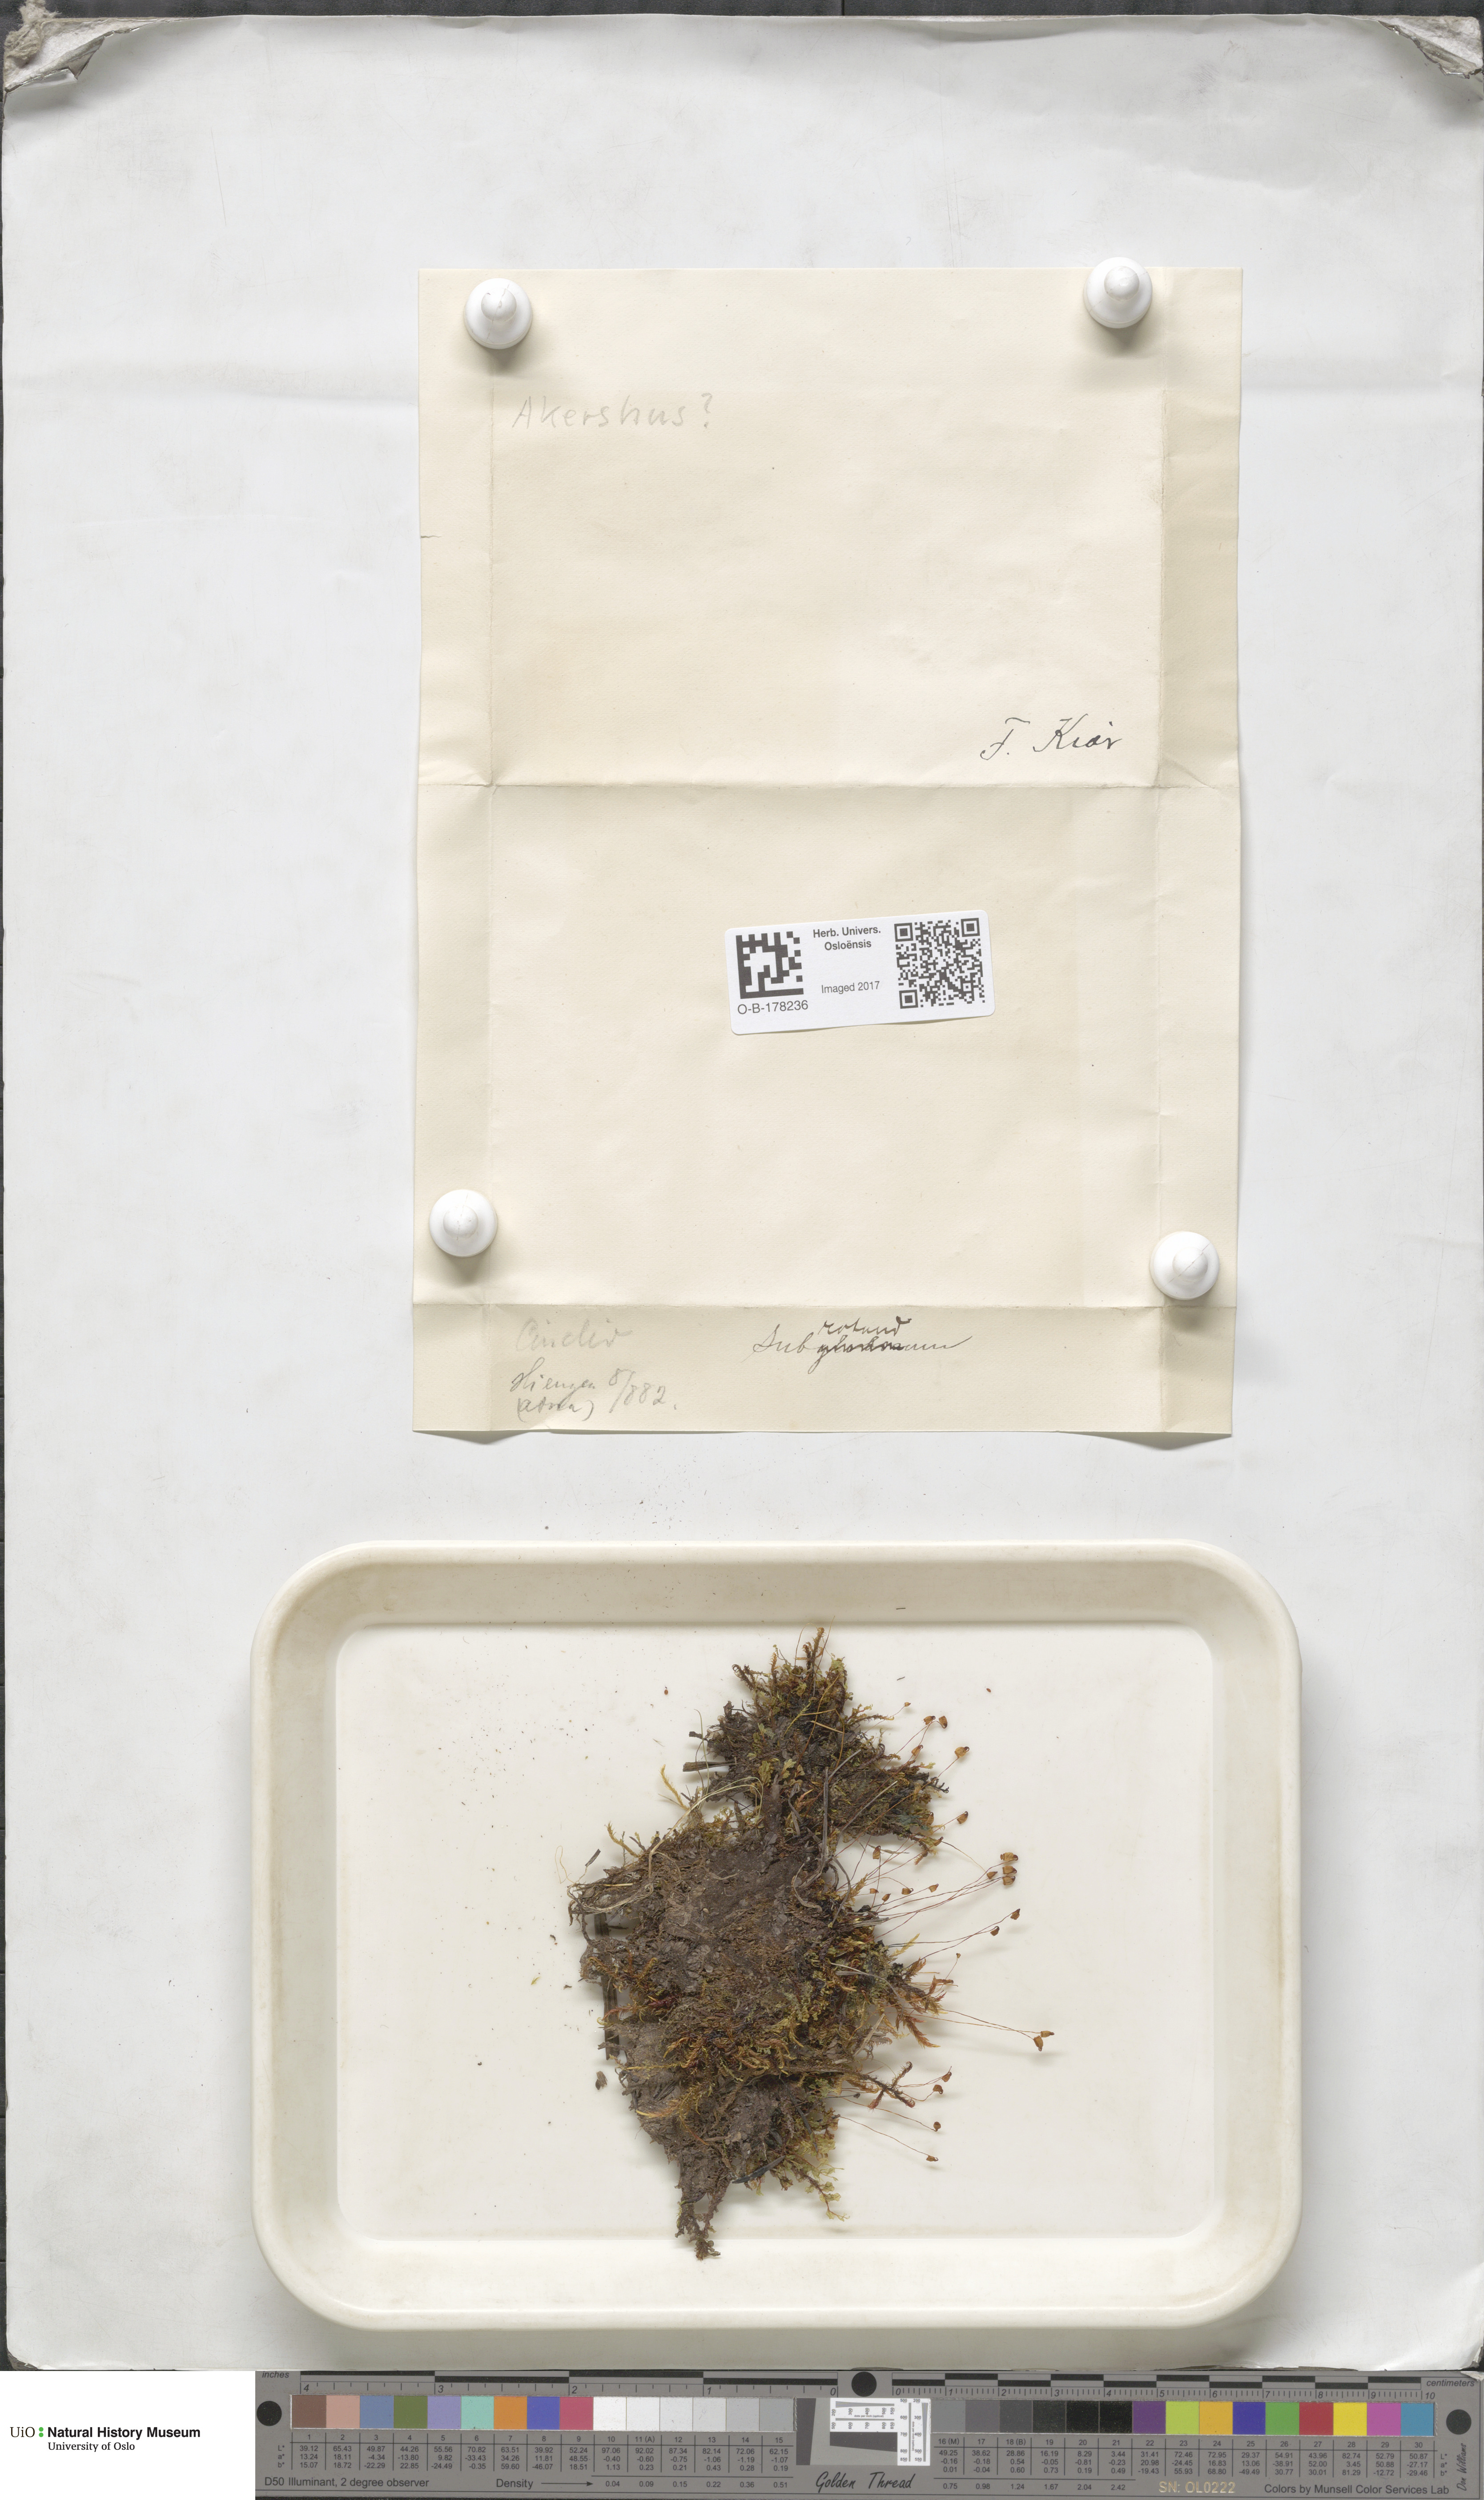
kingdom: Plantae
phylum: Bryophyta
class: Bryopsida
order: Bryales
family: Mniaceae
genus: Cinclidium
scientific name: Cinclidium subrotundum
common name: Ovate cupola moss
